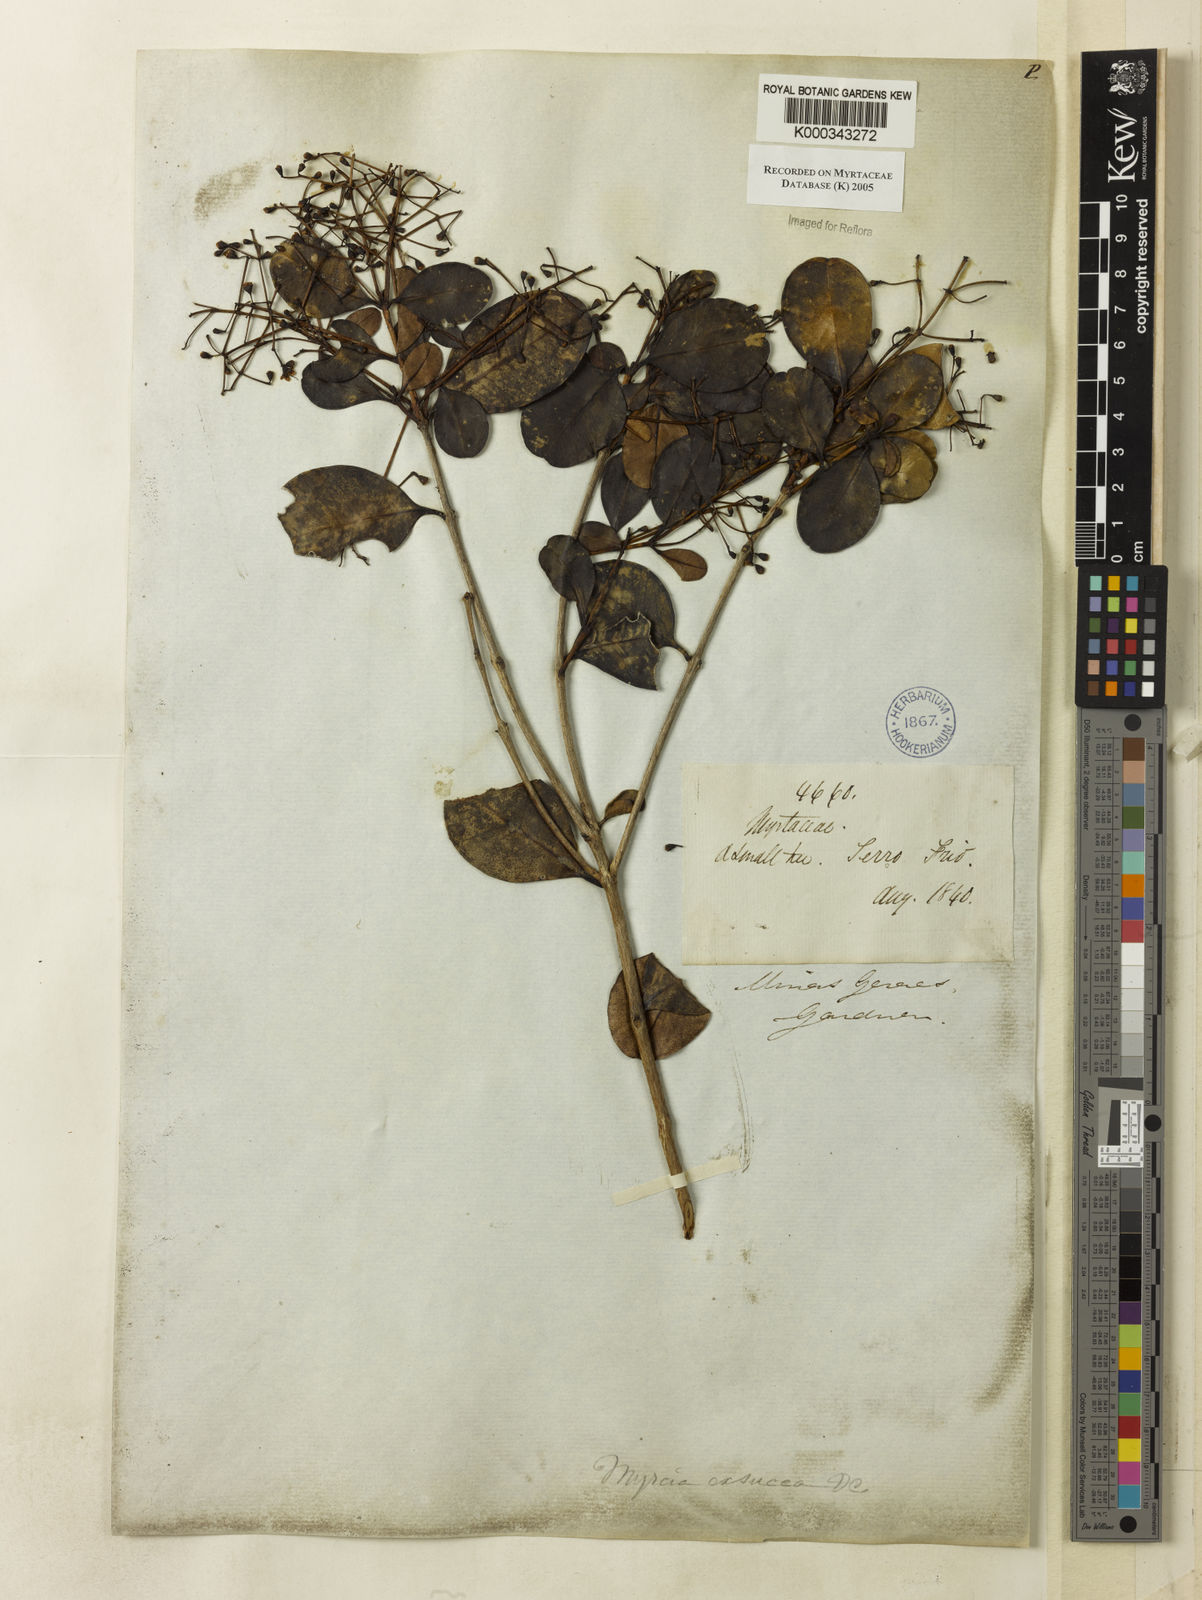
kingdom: Plantae
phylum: Tracheophyta
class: Magnoliopsida
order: Myrtales
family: Myrtaceae
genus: Myrcia
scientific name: Myrcia guianensis
